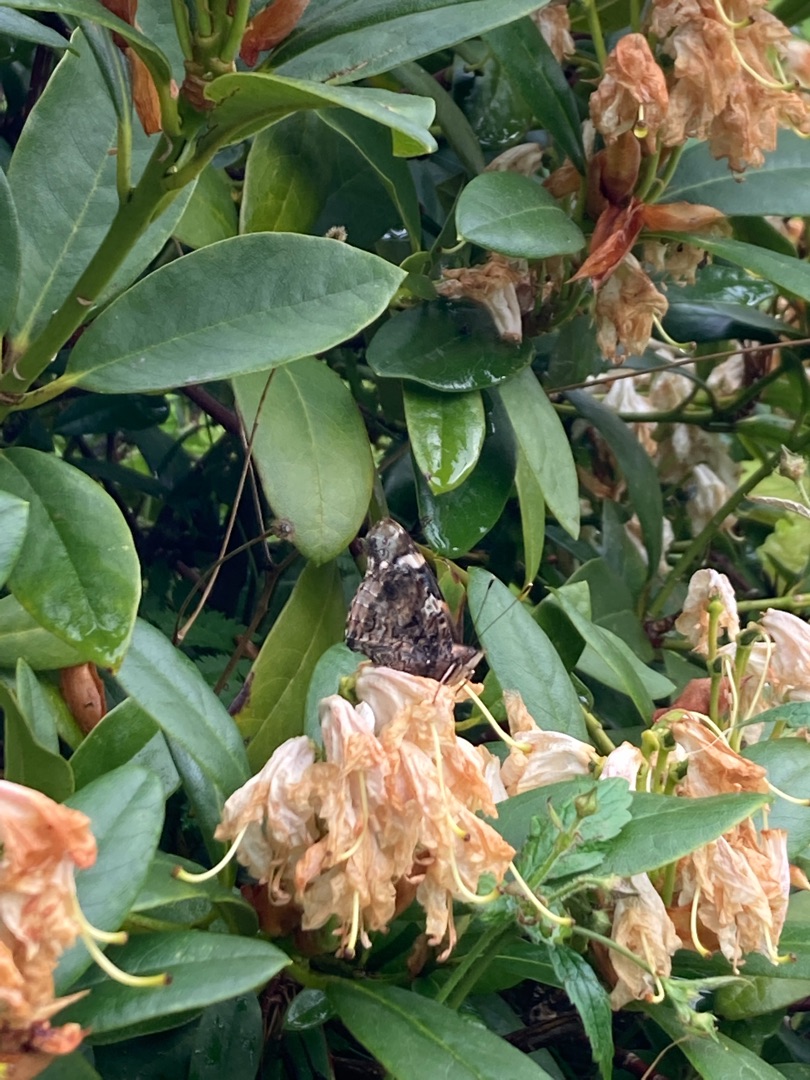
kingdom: Animalia
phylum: Arthropoda
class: Insecta
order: Lepidoptera
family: Nymphalidae
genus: Vanessa
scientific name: Vanessa atalanta
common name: Admiral
